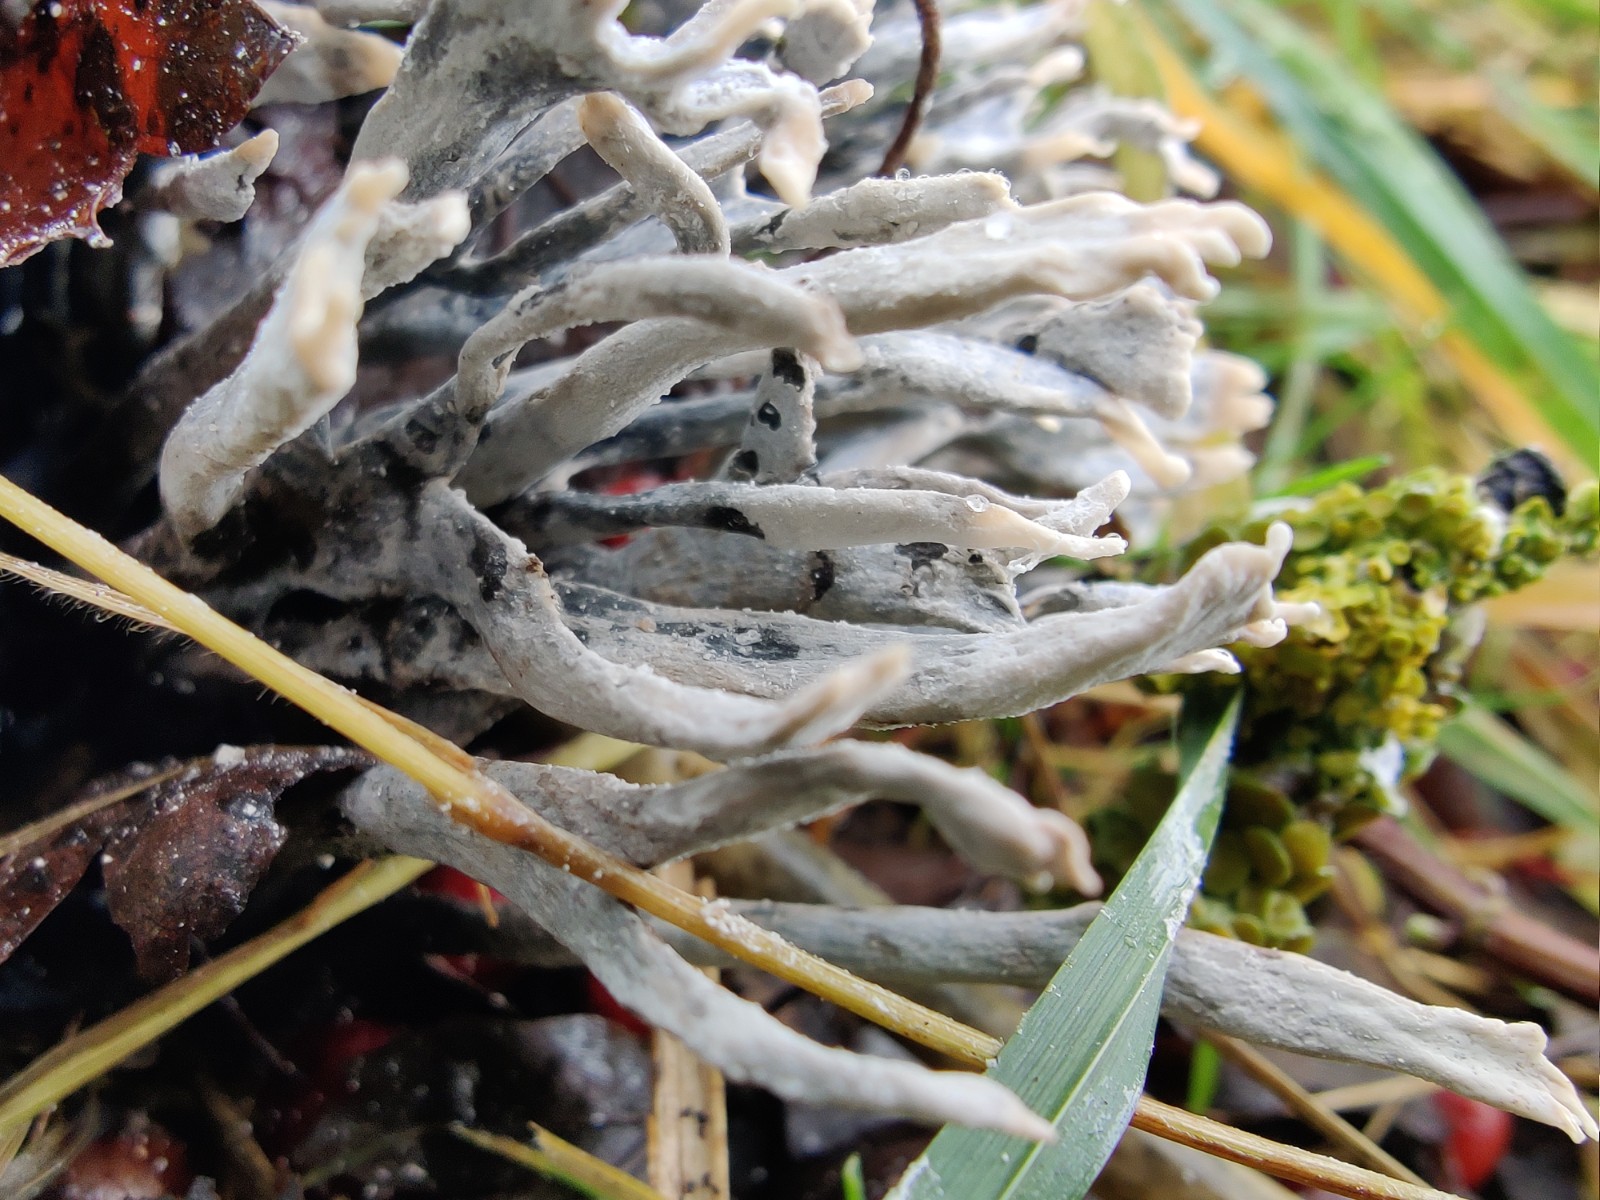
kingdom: Fungi
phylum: Ascomycota
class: Sordariomycetes
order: Xylariales
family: Xylariaceae
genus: Xylaria
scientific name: Xylaria hypoxylon
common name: grenet stødsvamp
